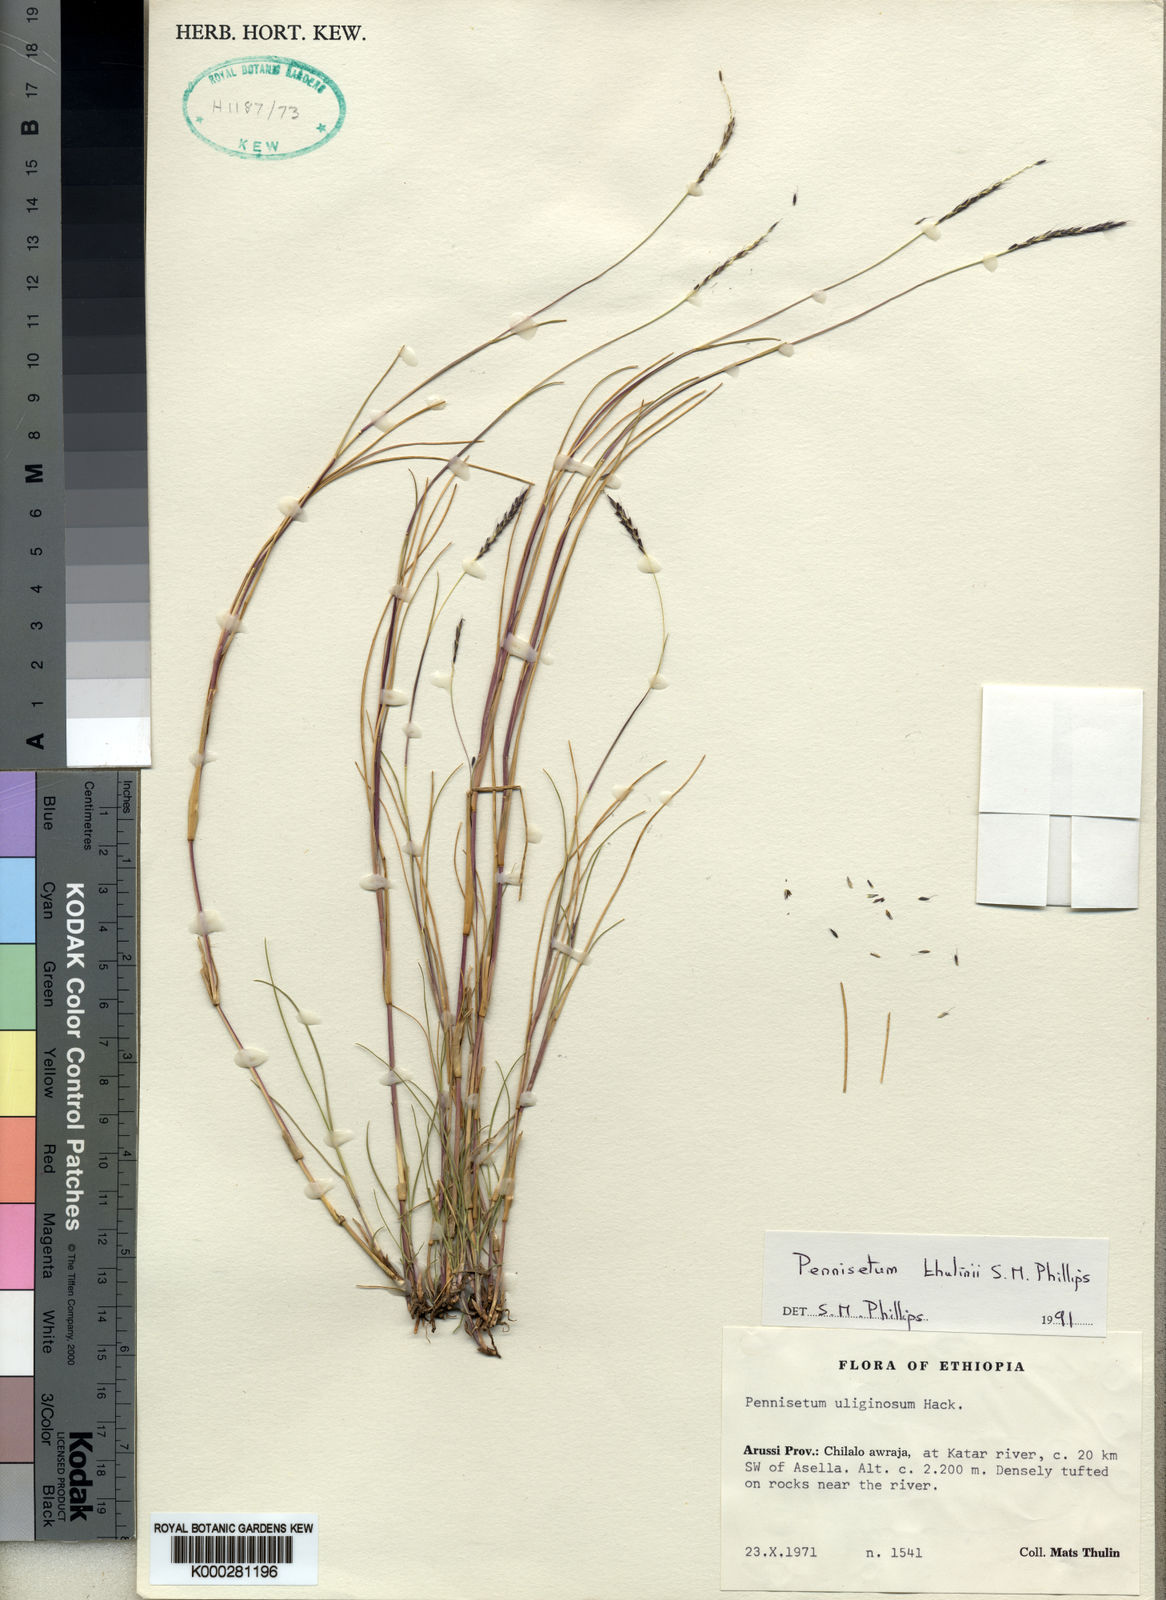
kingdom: Plantae
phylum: Tracheophyta
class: Liliopsida
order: Poales
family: Poaceae
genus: Cenchrus
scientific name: Cenchrus thulinii
